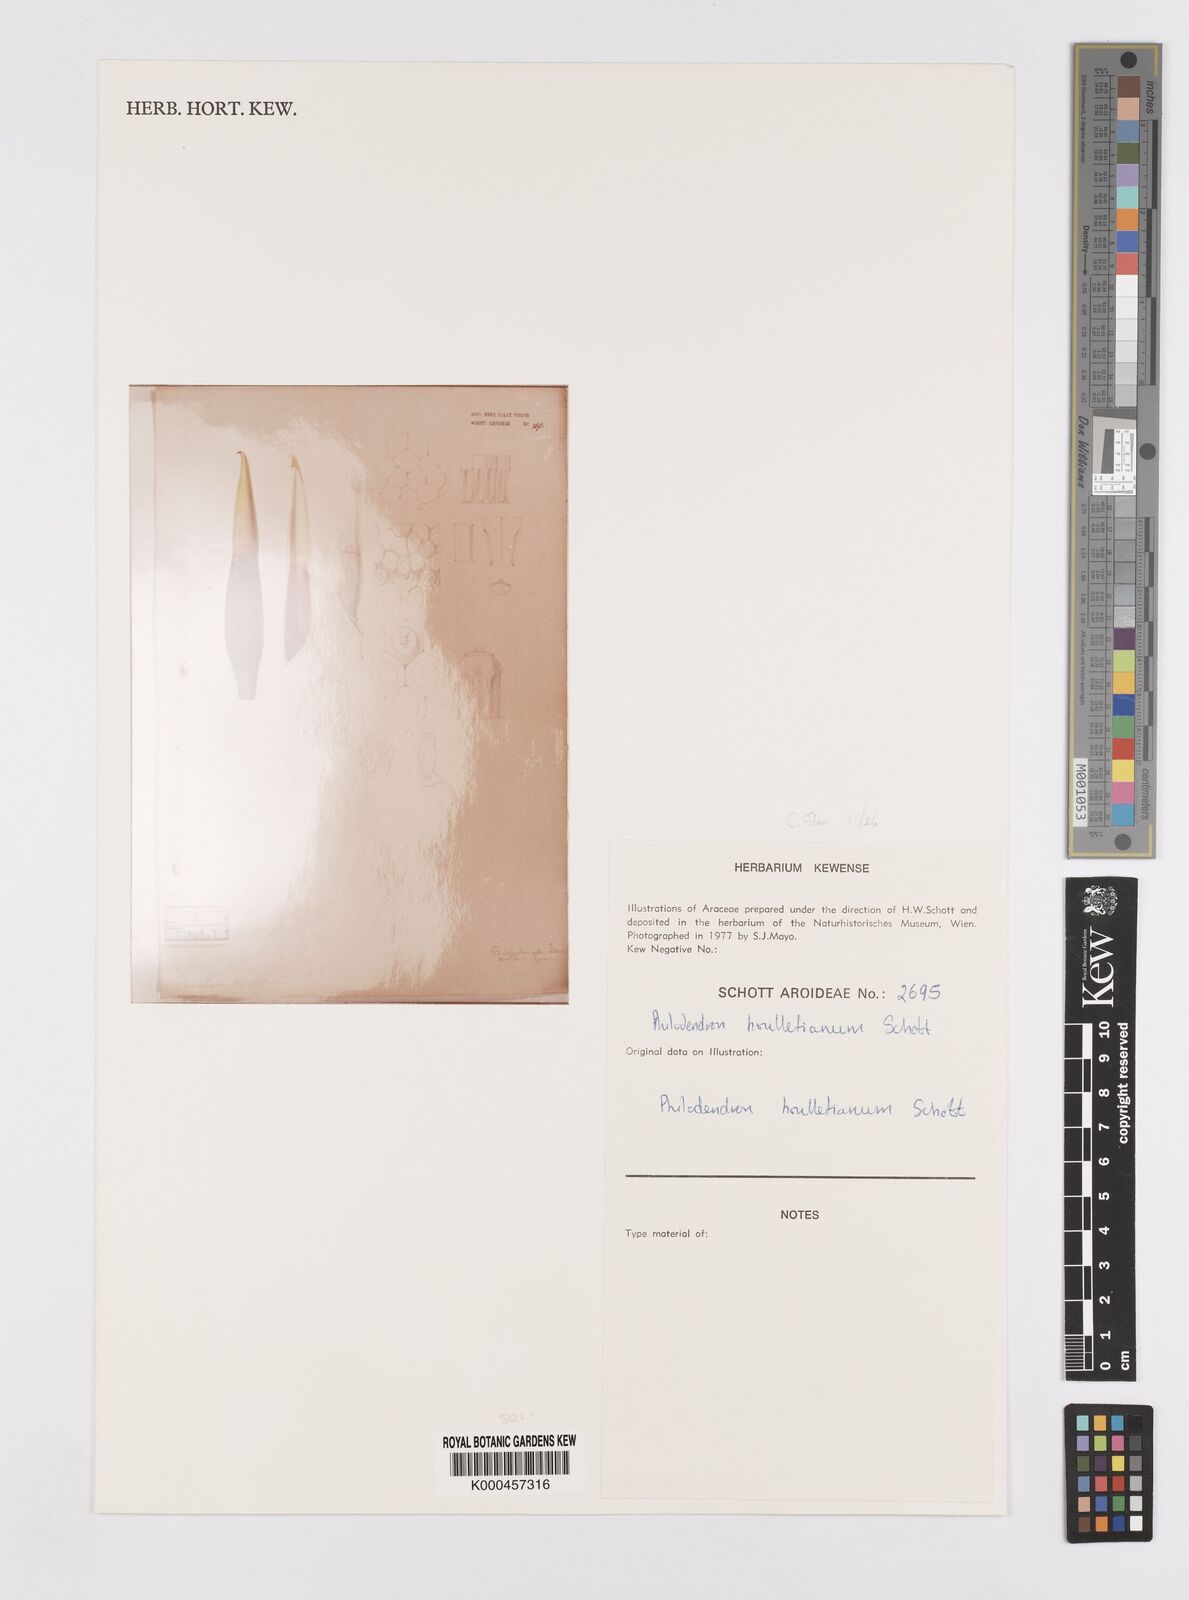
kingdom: Plantae
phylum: Tracheophyta
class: Liliopsida
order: Alismatales
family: Araceae
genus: Philodendron
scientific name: Philodendron houlletianum
